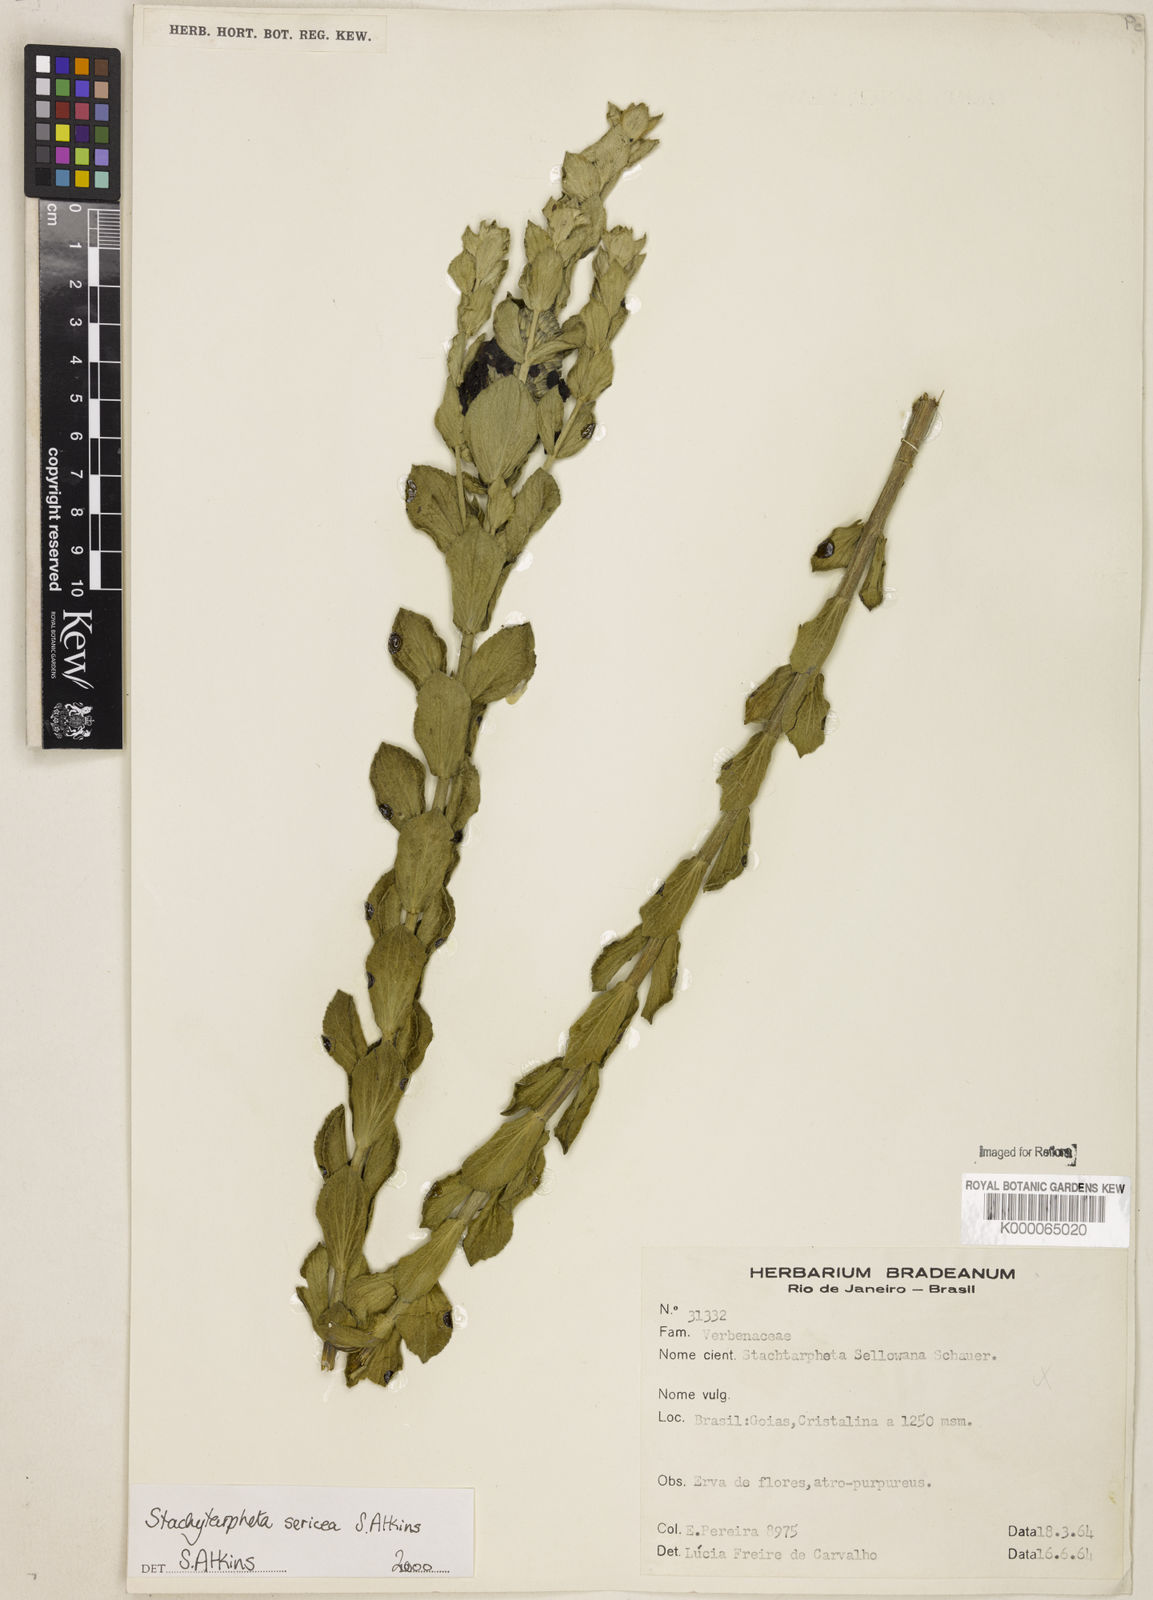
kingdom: Plantae
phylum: Tracheophyta
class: Magnoliopsida
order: Lamiales
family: Verbenaceae
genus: Stachytarpheta
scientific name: Stachytarpheta sericea
